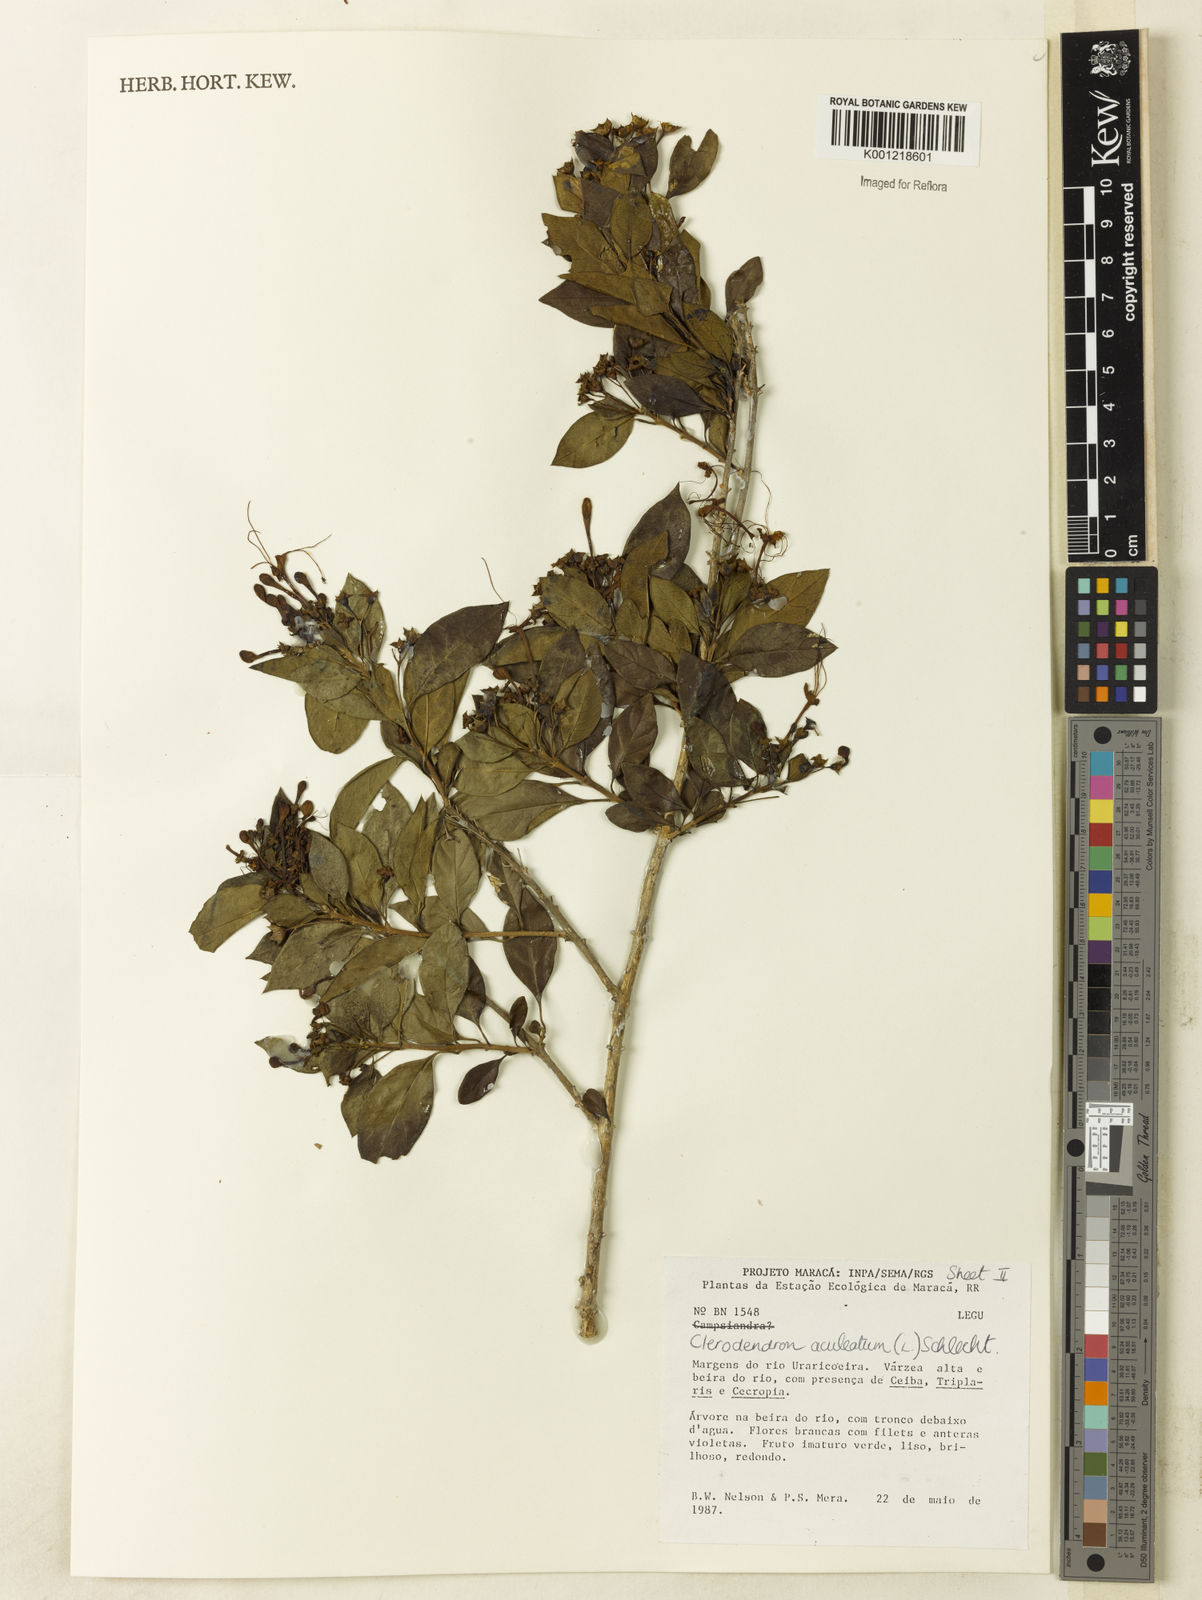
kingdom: Plantae
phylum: Tracheophyta
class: Magnoliopsida
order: Lamiales
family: Lamiaceae
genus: Volkameria
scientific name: Volkameria aculeata
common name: Prickly myrtle
